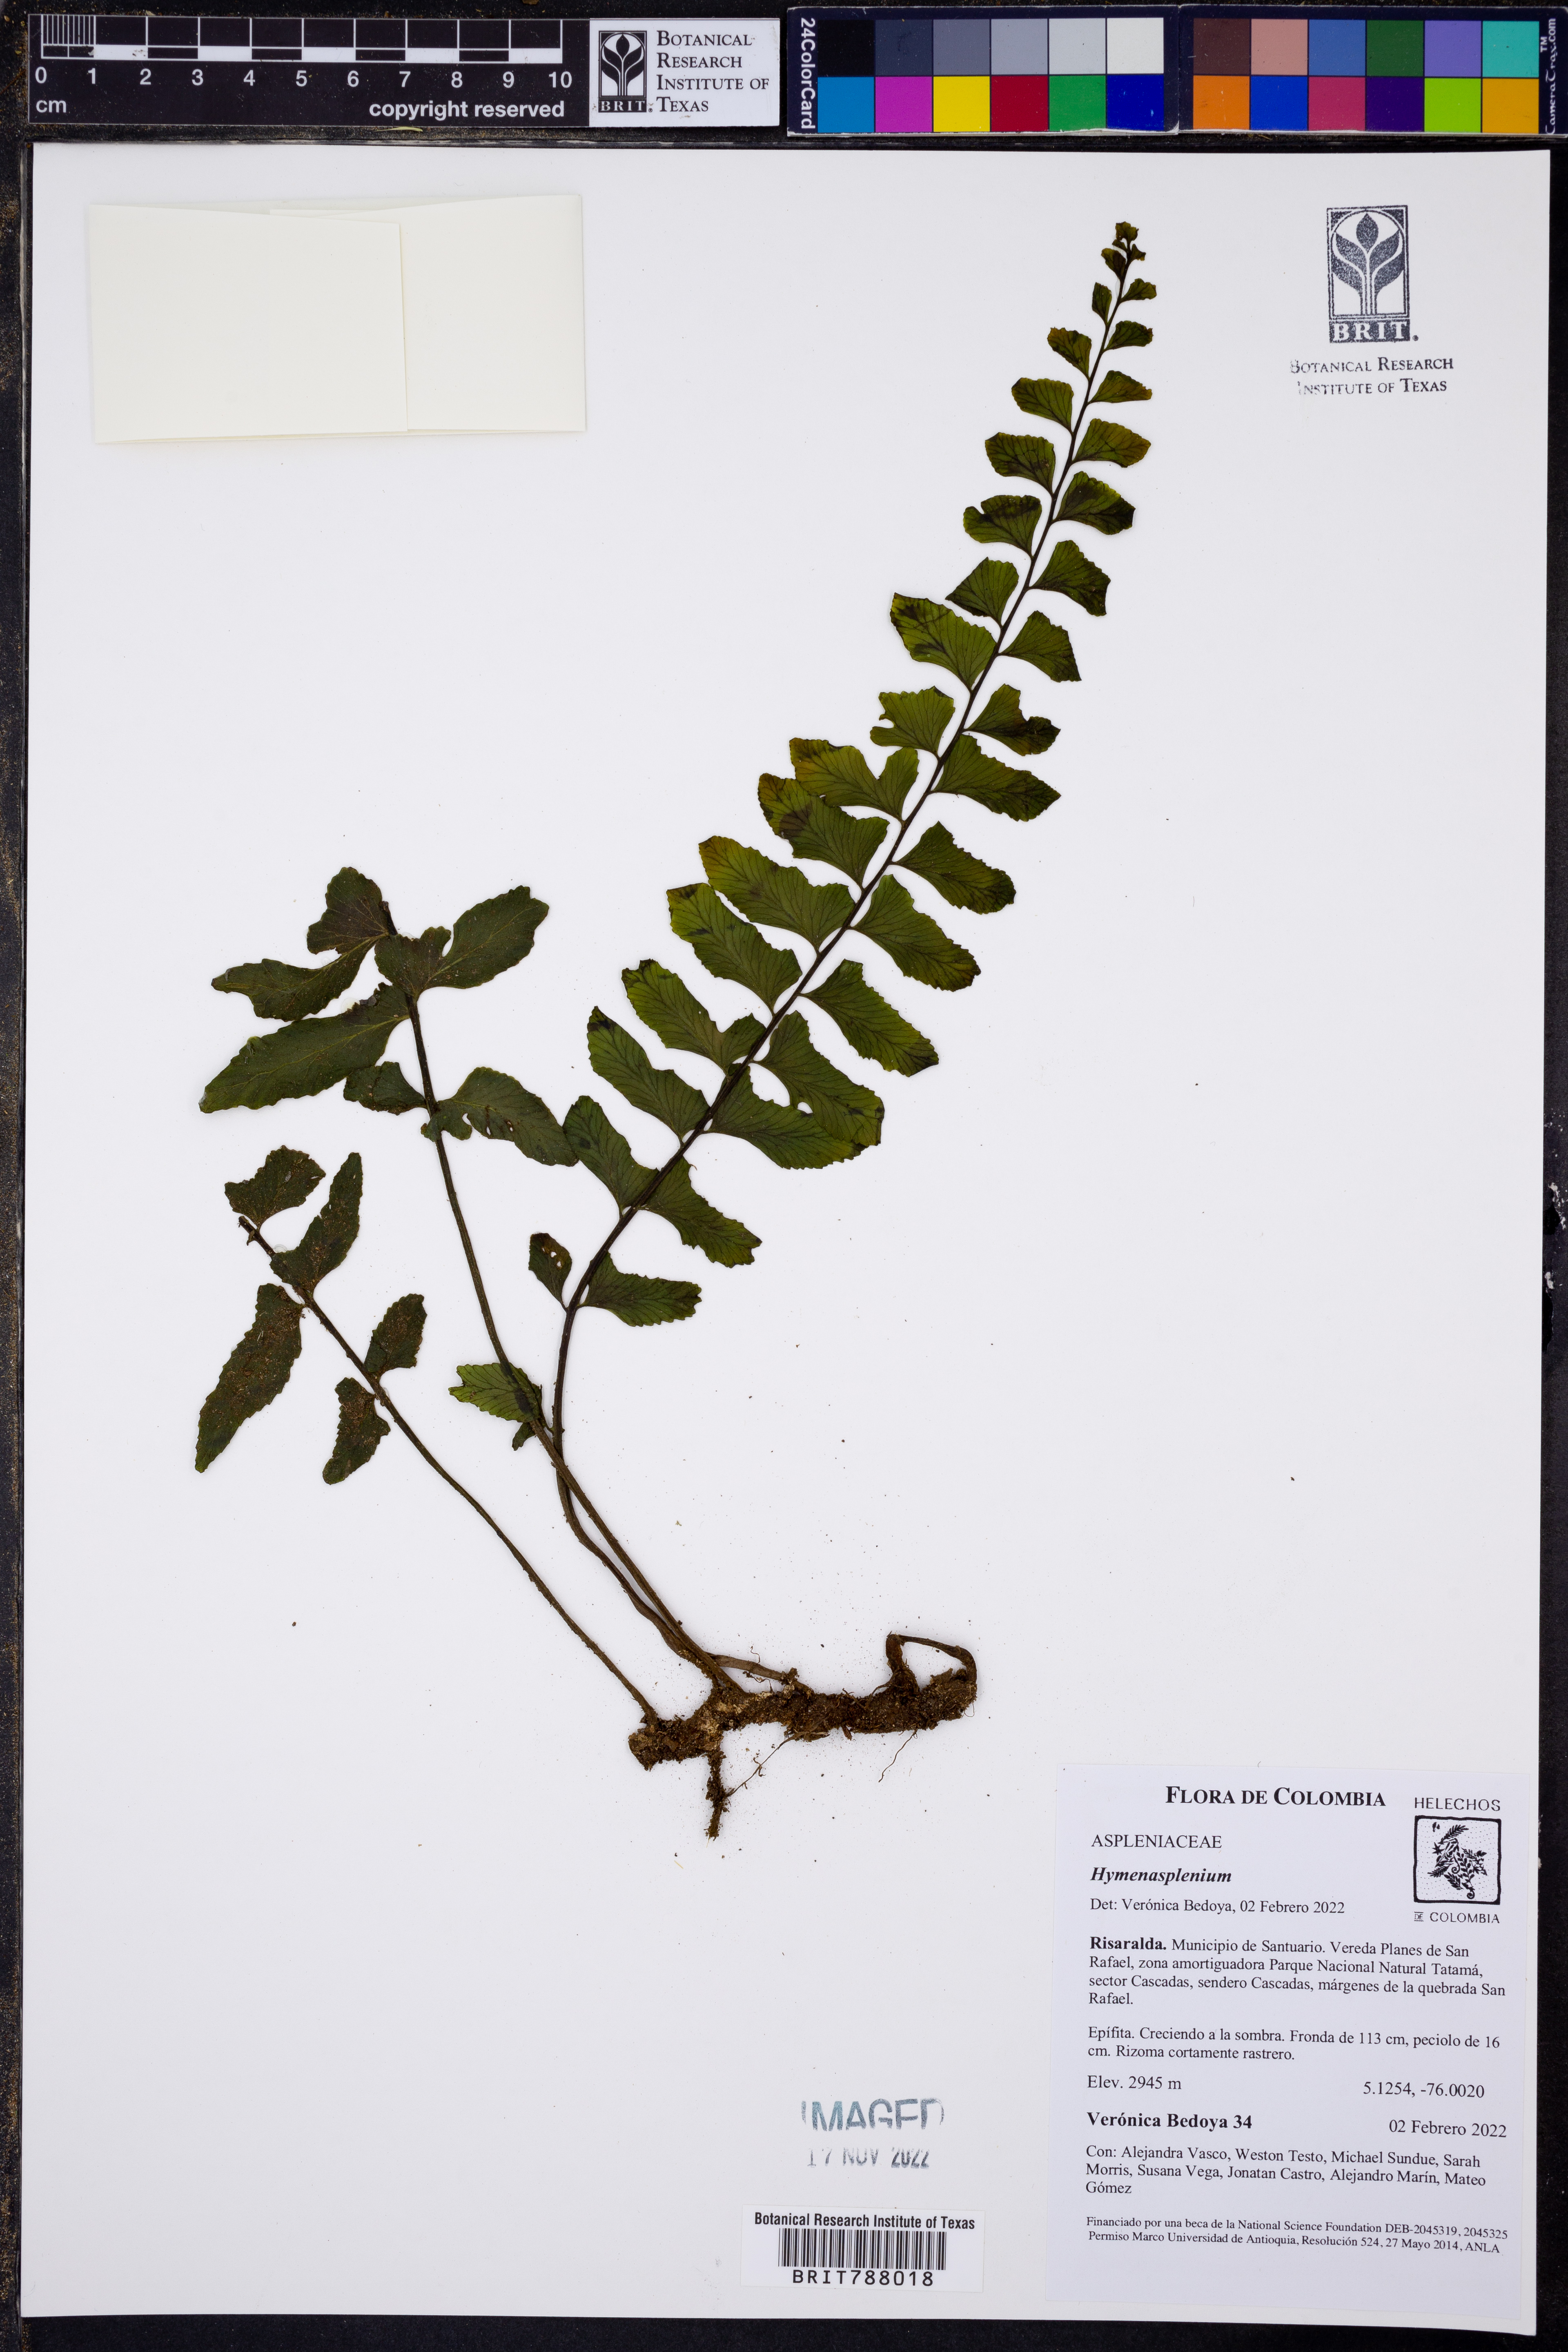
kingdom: Plantae
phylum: Tracheophyta
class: Polypodiopsida
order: Polypodiales
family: Aspleniaceae
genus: Hymenasplenium
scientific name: Hymenasplenium
